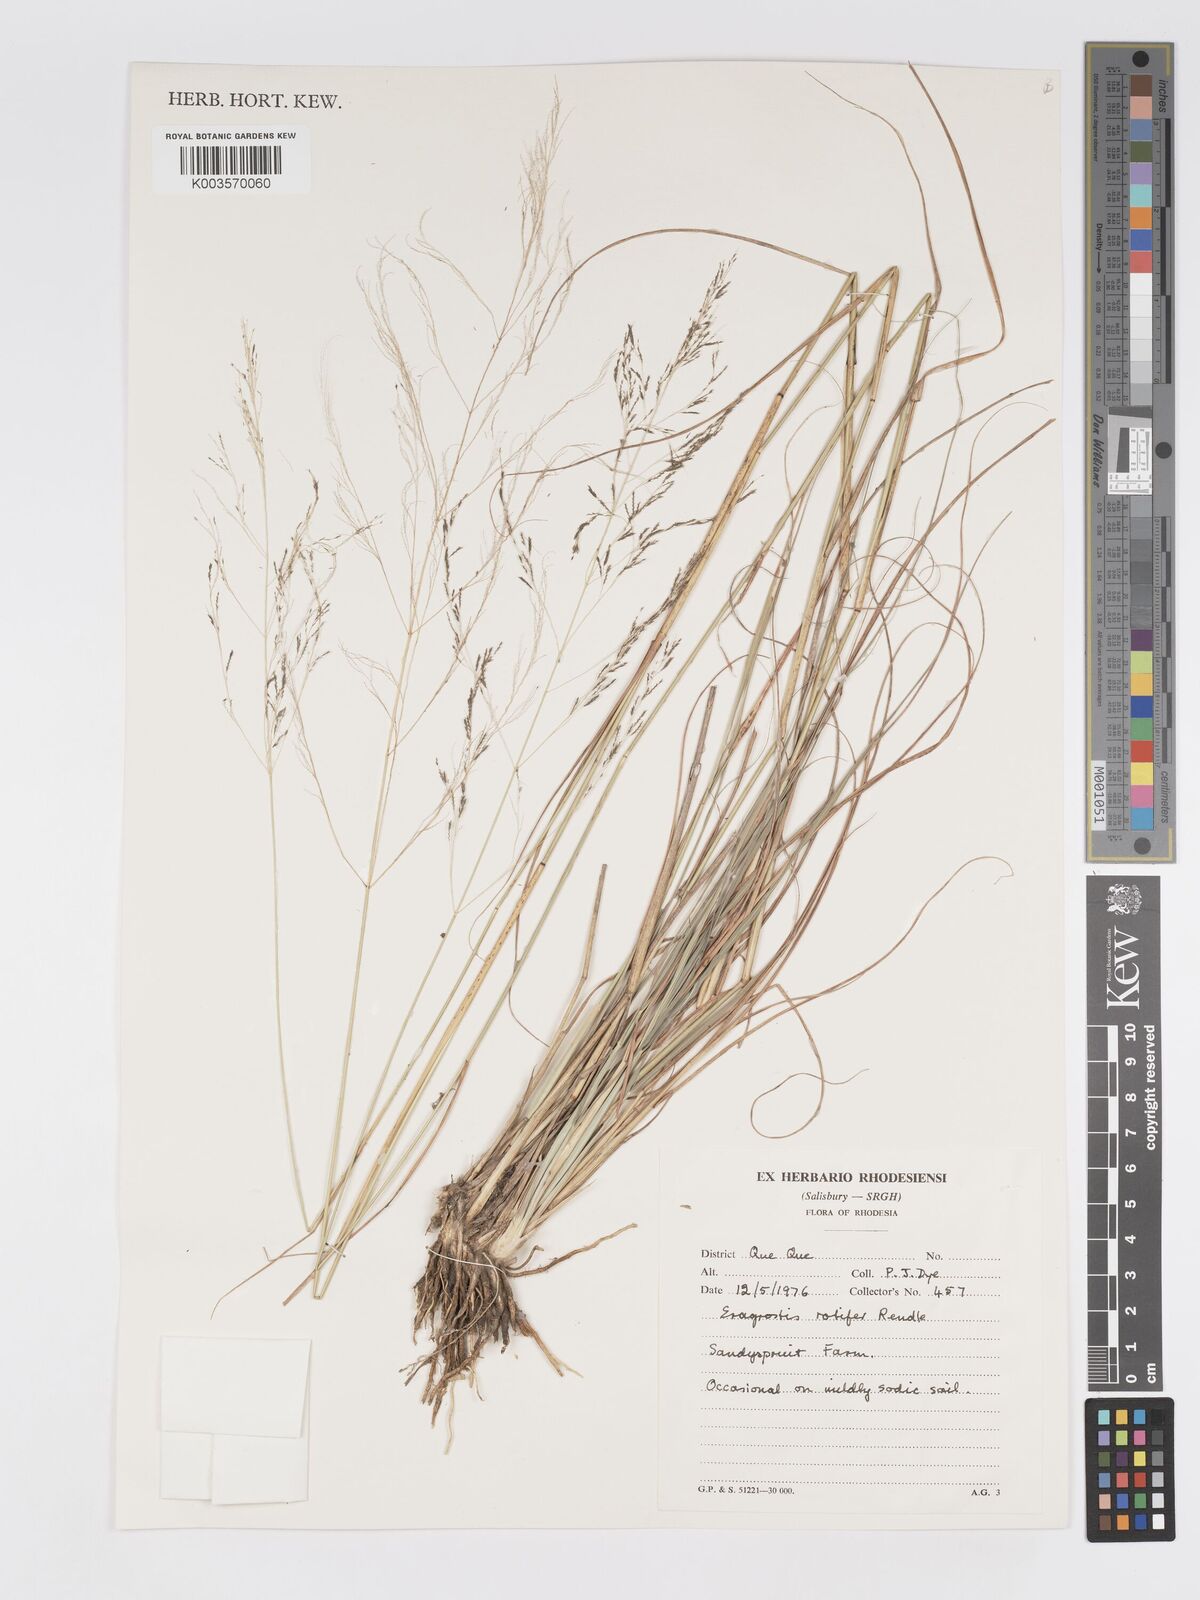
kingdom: Plantae
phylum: Tracheophyta
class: Liliopsida
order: Poales
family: Poaceae
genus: Eragrostis
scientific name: Eragrostis rotifer
